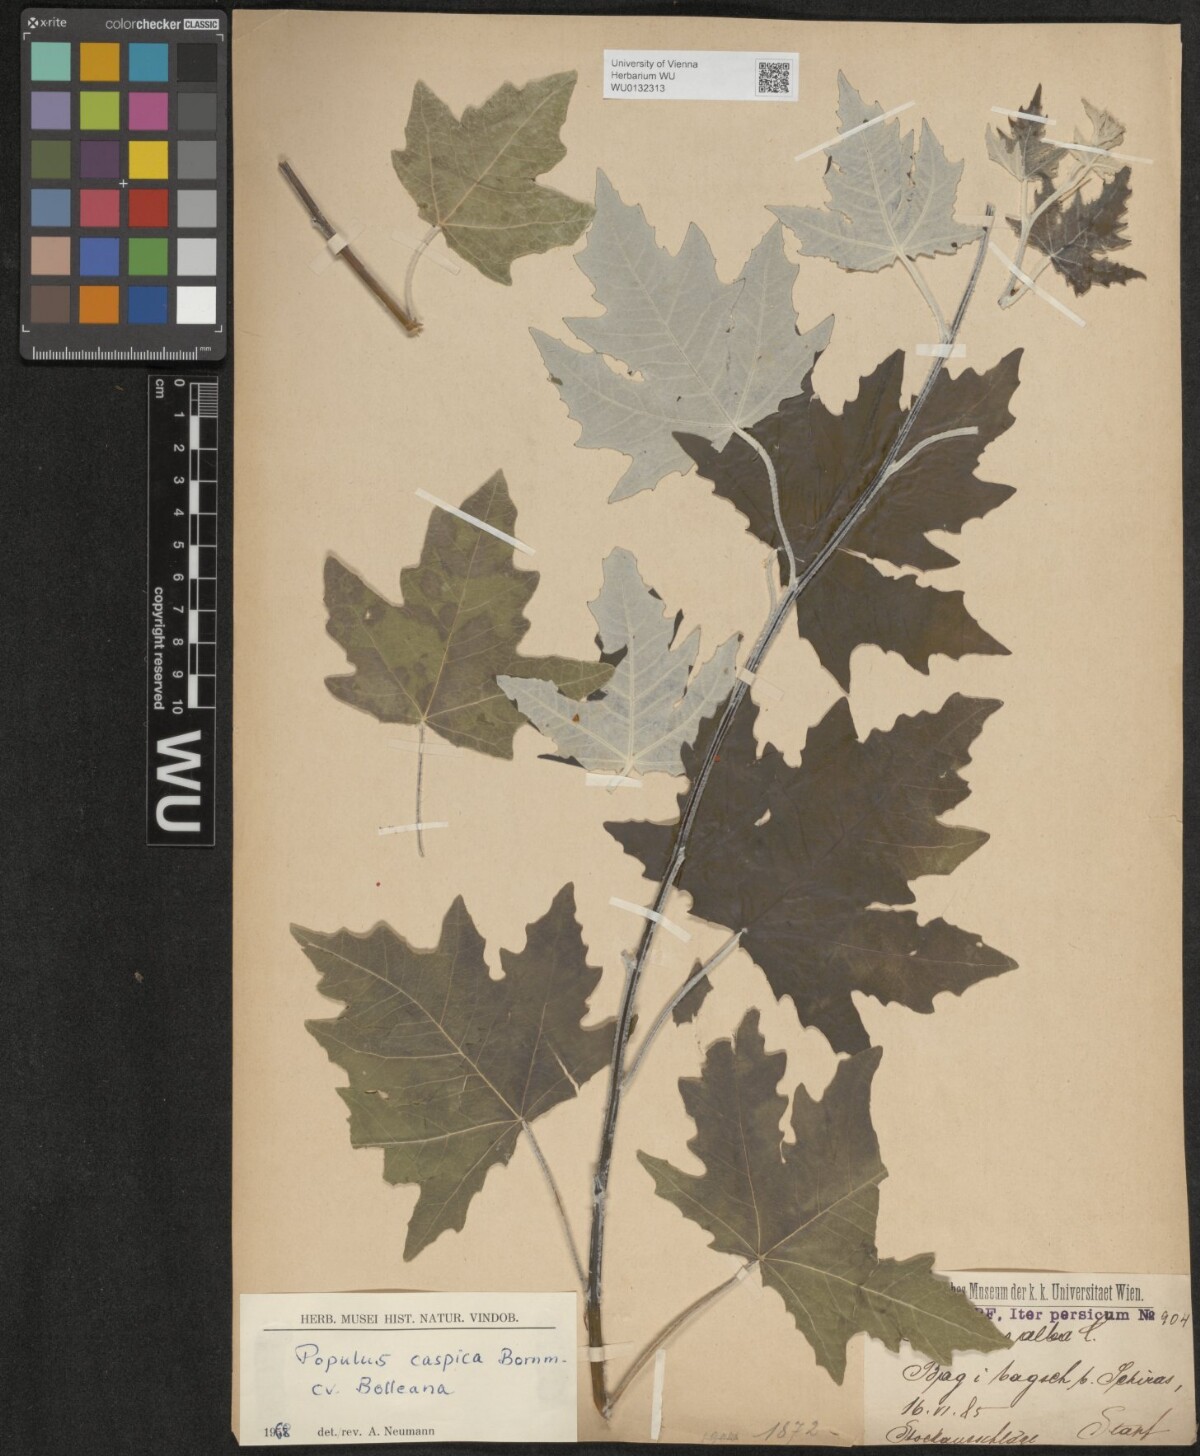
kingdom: Plantae
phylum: Tracheophyta
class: Magnoliopsida
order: Malpighiales
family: Salicaceae
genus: Populus
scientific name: Populus alba
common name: White poplar
